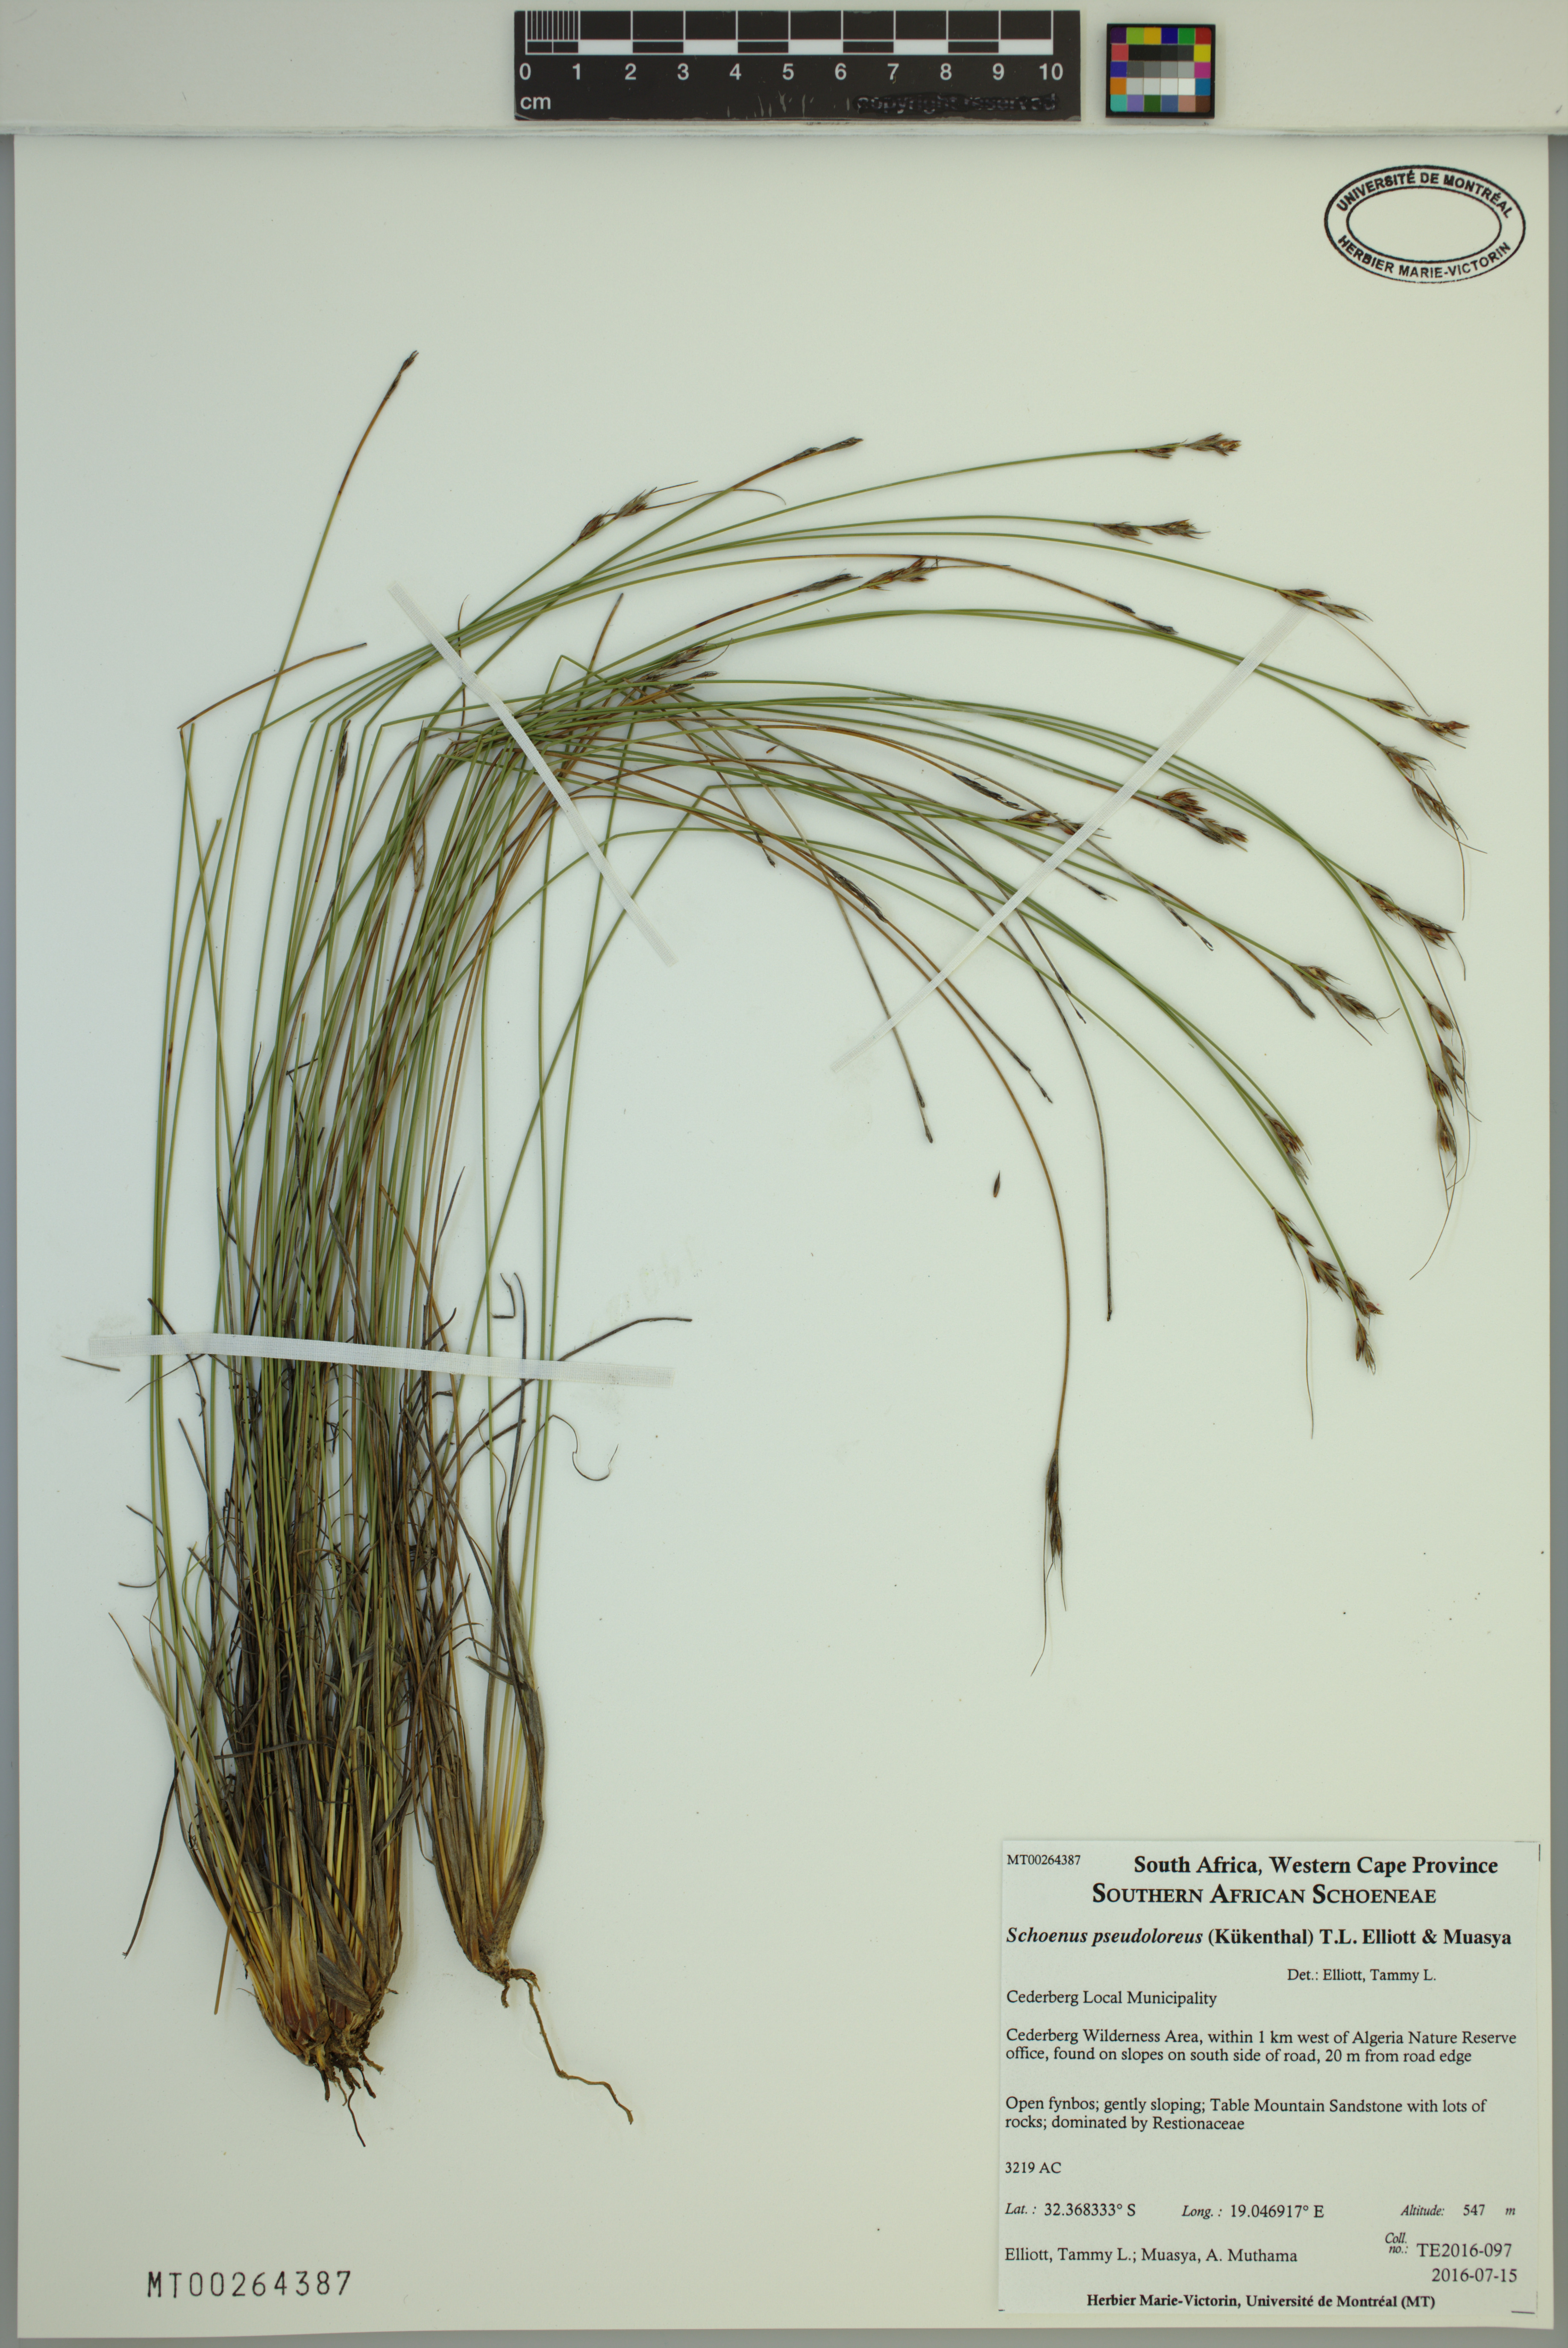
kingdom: Plantae
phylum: Tracheophyta
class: Liliopsida
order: Poales
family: Cyperaceae
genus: Schoenus
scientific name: Schoenus pseudoloreus
